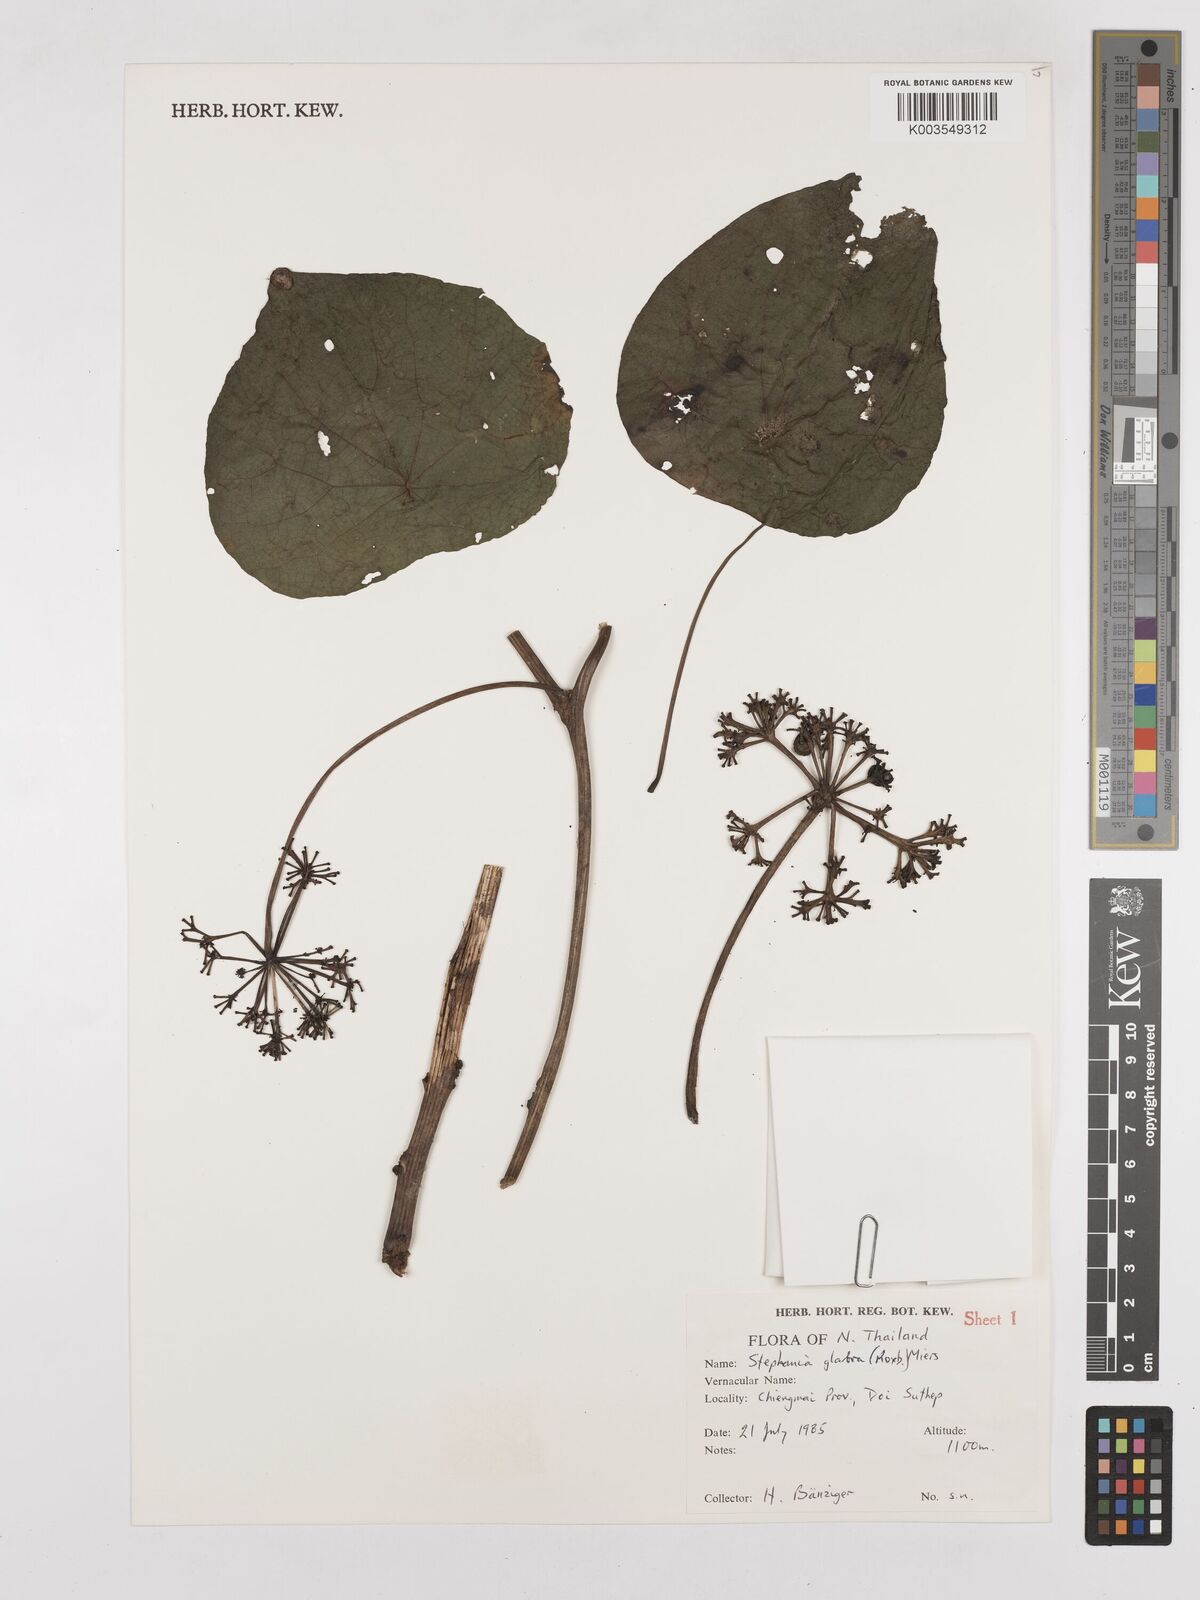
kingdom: Plantae
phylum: Tracheophyta
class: Magnoliopsida
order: Ranunculales
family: Menispermaceae
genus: Stephania
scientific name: Stephania rotunda
